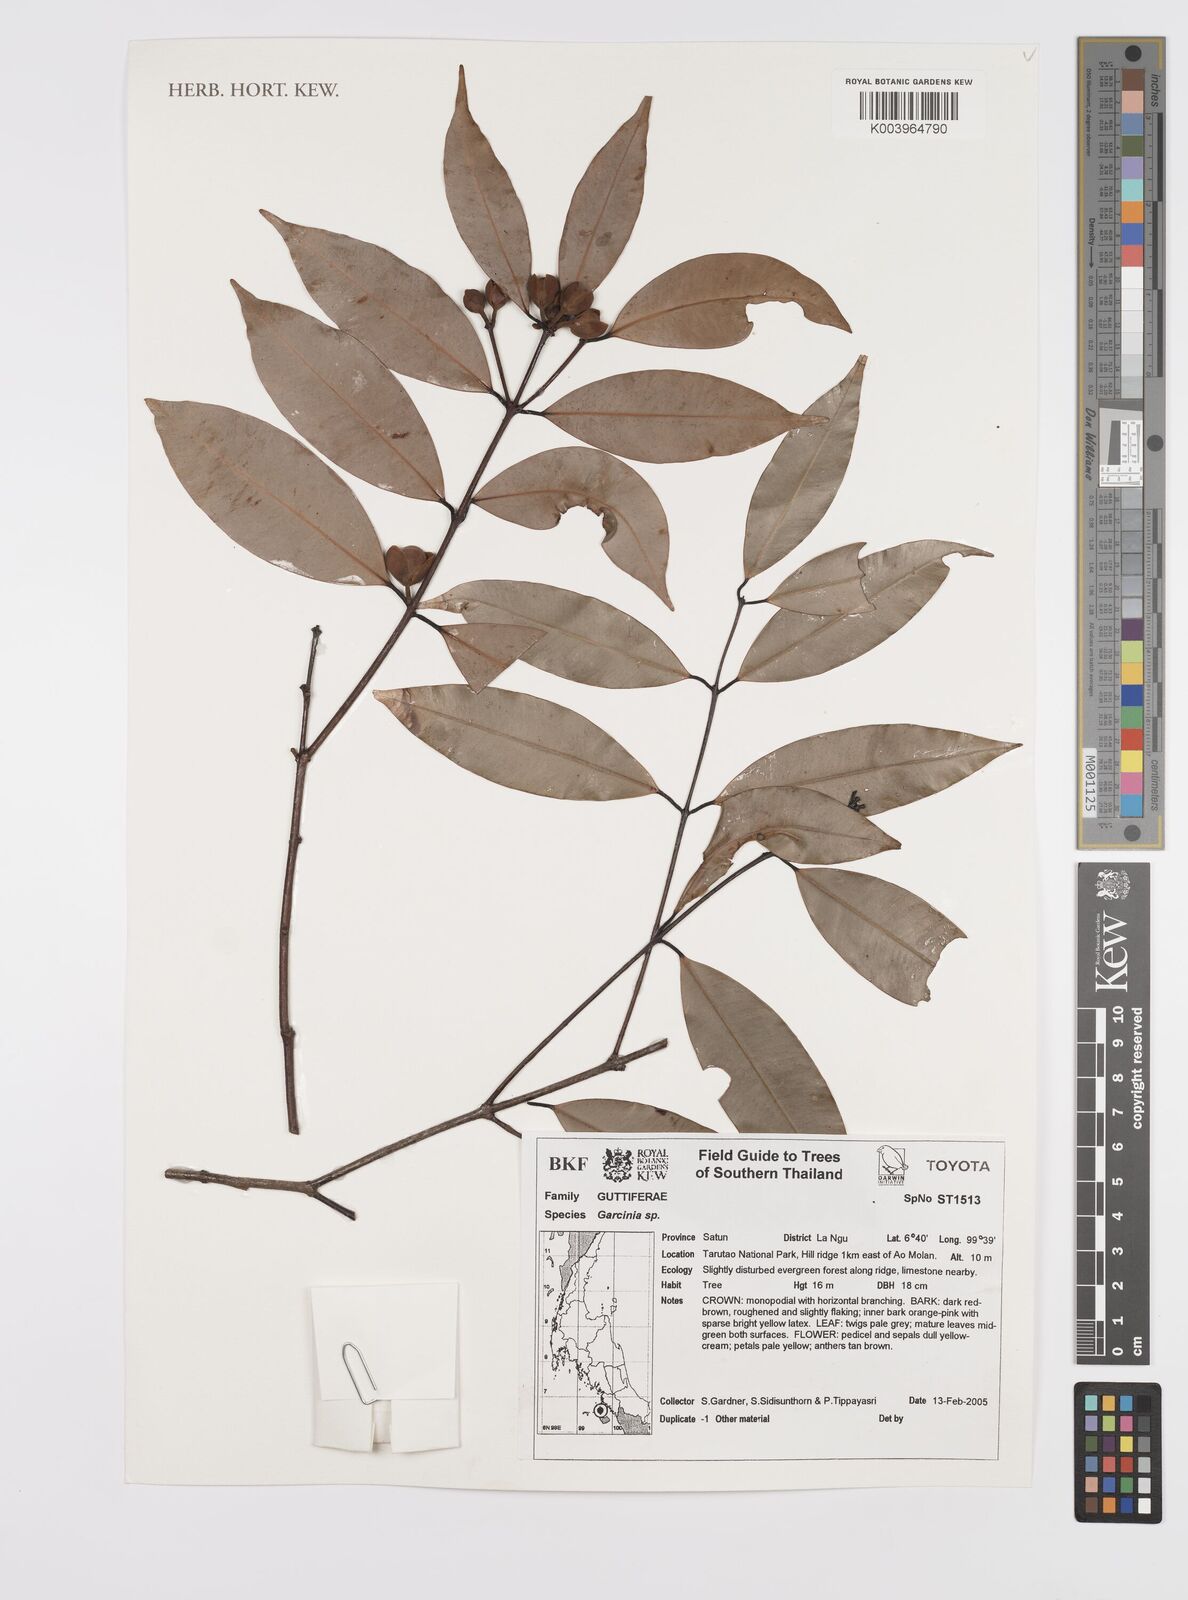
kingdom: Plantae
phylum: Tracheophyta
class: Magnoliopsida
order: Malpighiales
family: Clusiaceae
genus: Garcinia
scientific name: Garcinia celebica
